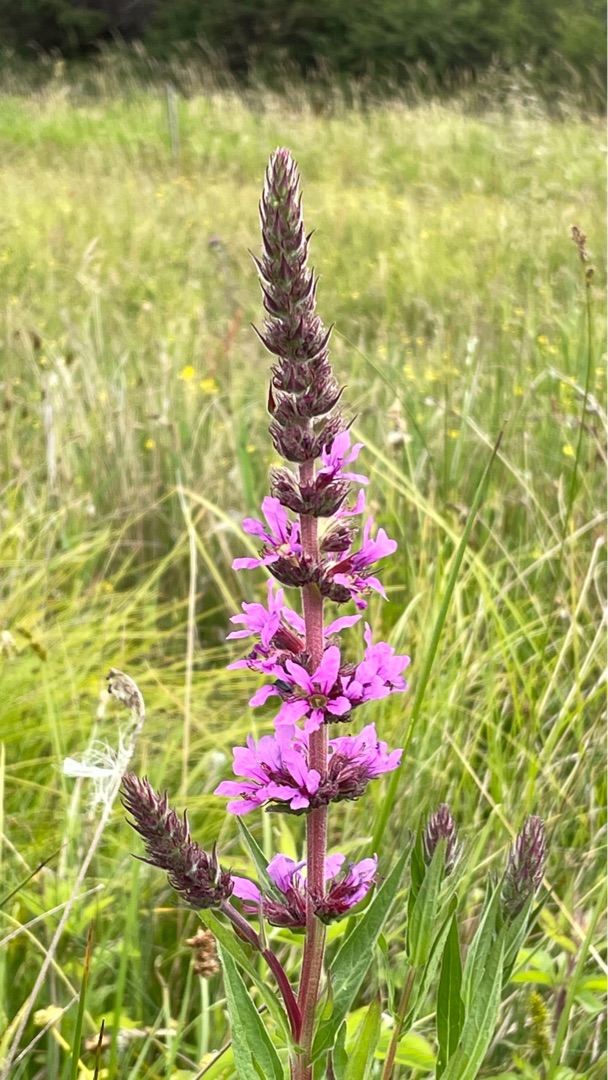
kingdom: Plantae
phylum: Tracheophyta
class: Magnoliopsida
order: Myrtales
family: Lythraceae
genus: Lythrum
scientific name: Lythrum salicaria
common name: Kattehale
